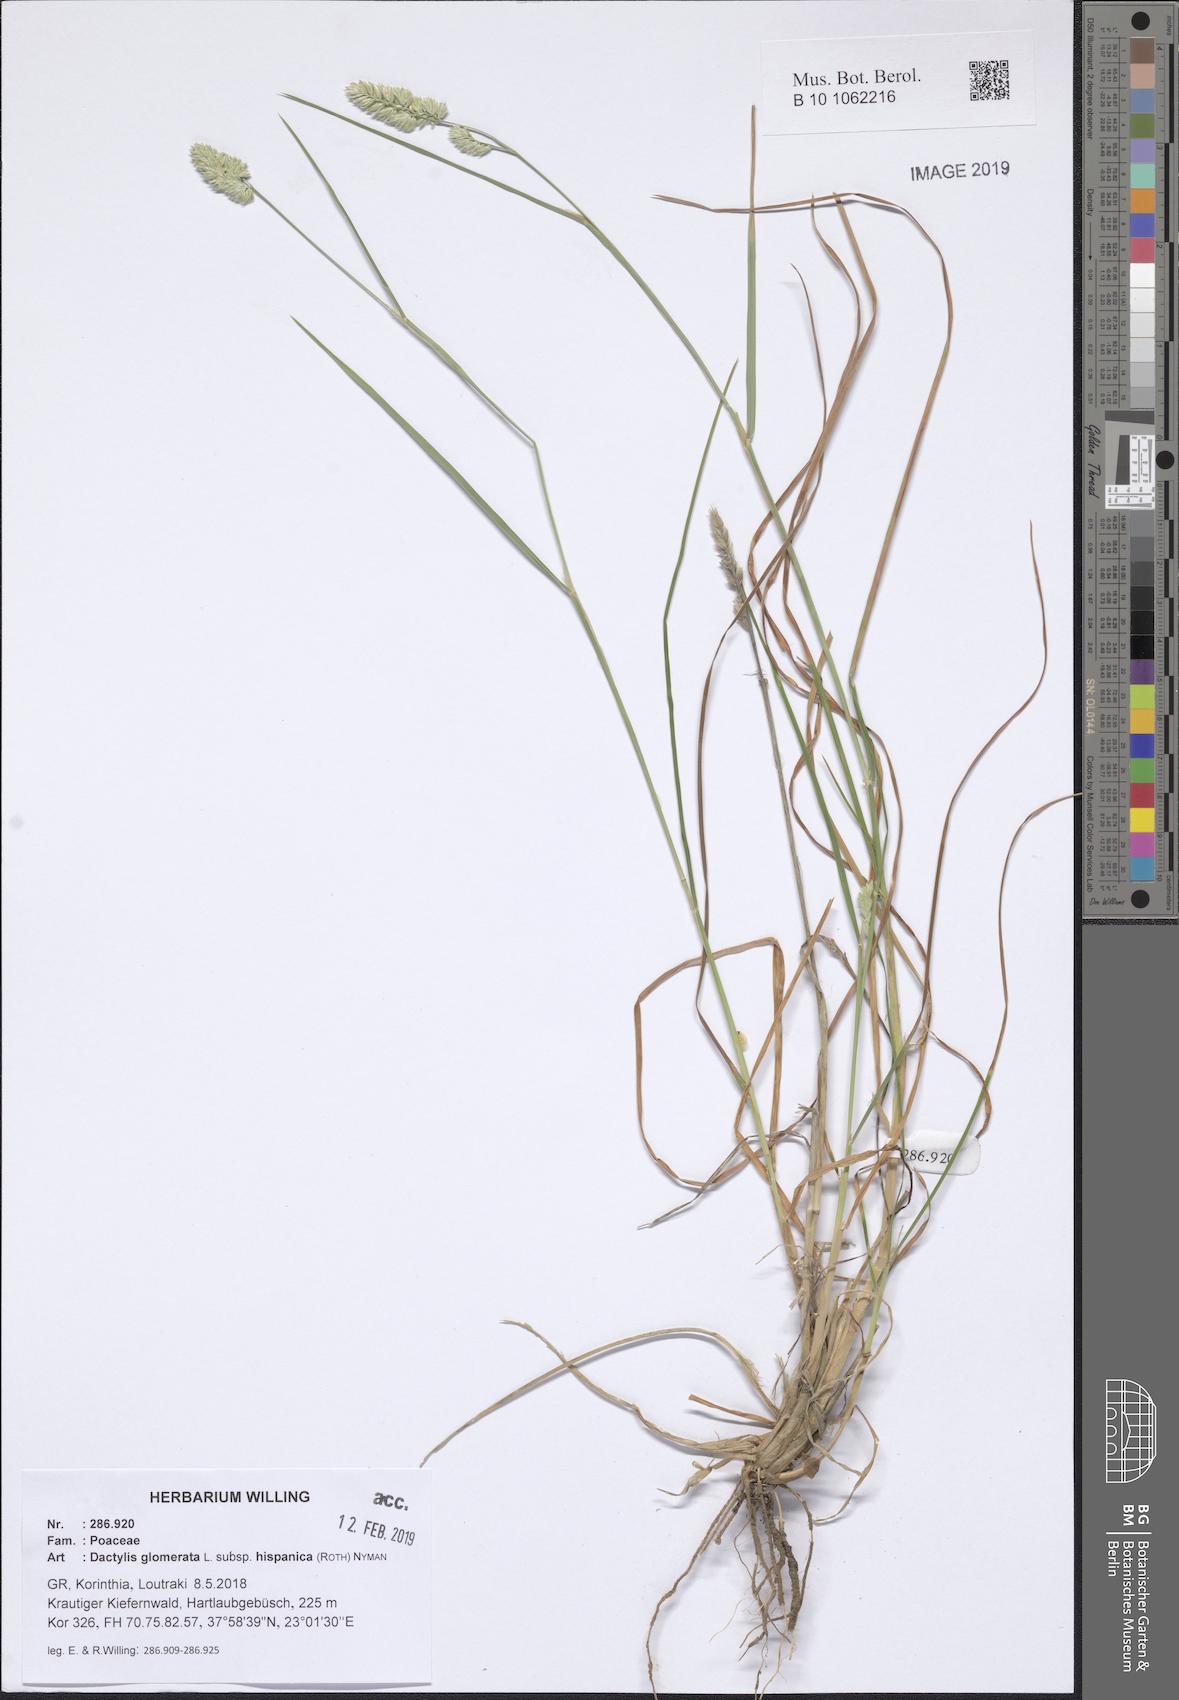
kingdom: Plantae
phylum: Tracheophyta
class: Liliopsida
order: Poales
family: Poaceae
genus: Dactylis
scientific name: Dactylis glomerata
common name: Orchardgrass
